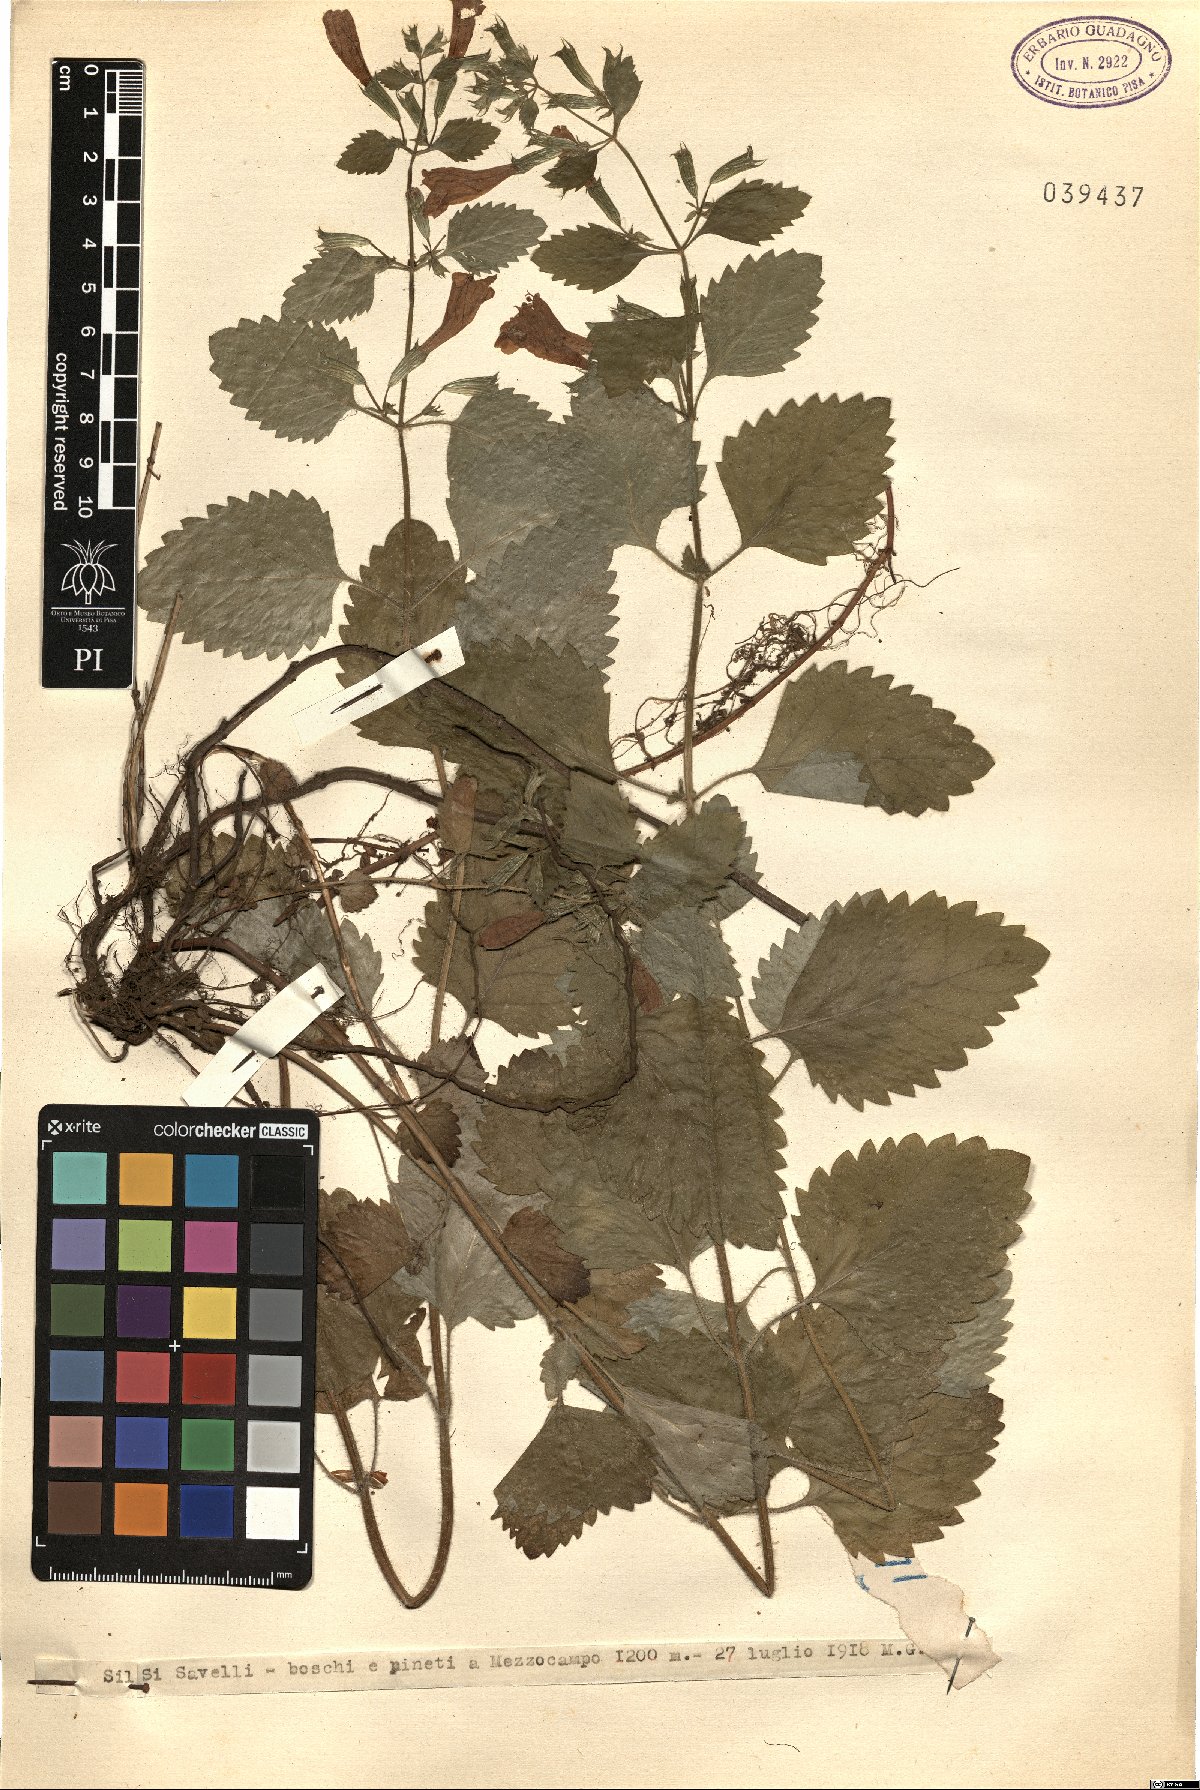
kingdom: Plantae
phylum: Tracheophyta
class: Magnoliopsida
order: Lamiales
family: Lamiaceae
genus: Calamintha
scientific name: Calamintha
